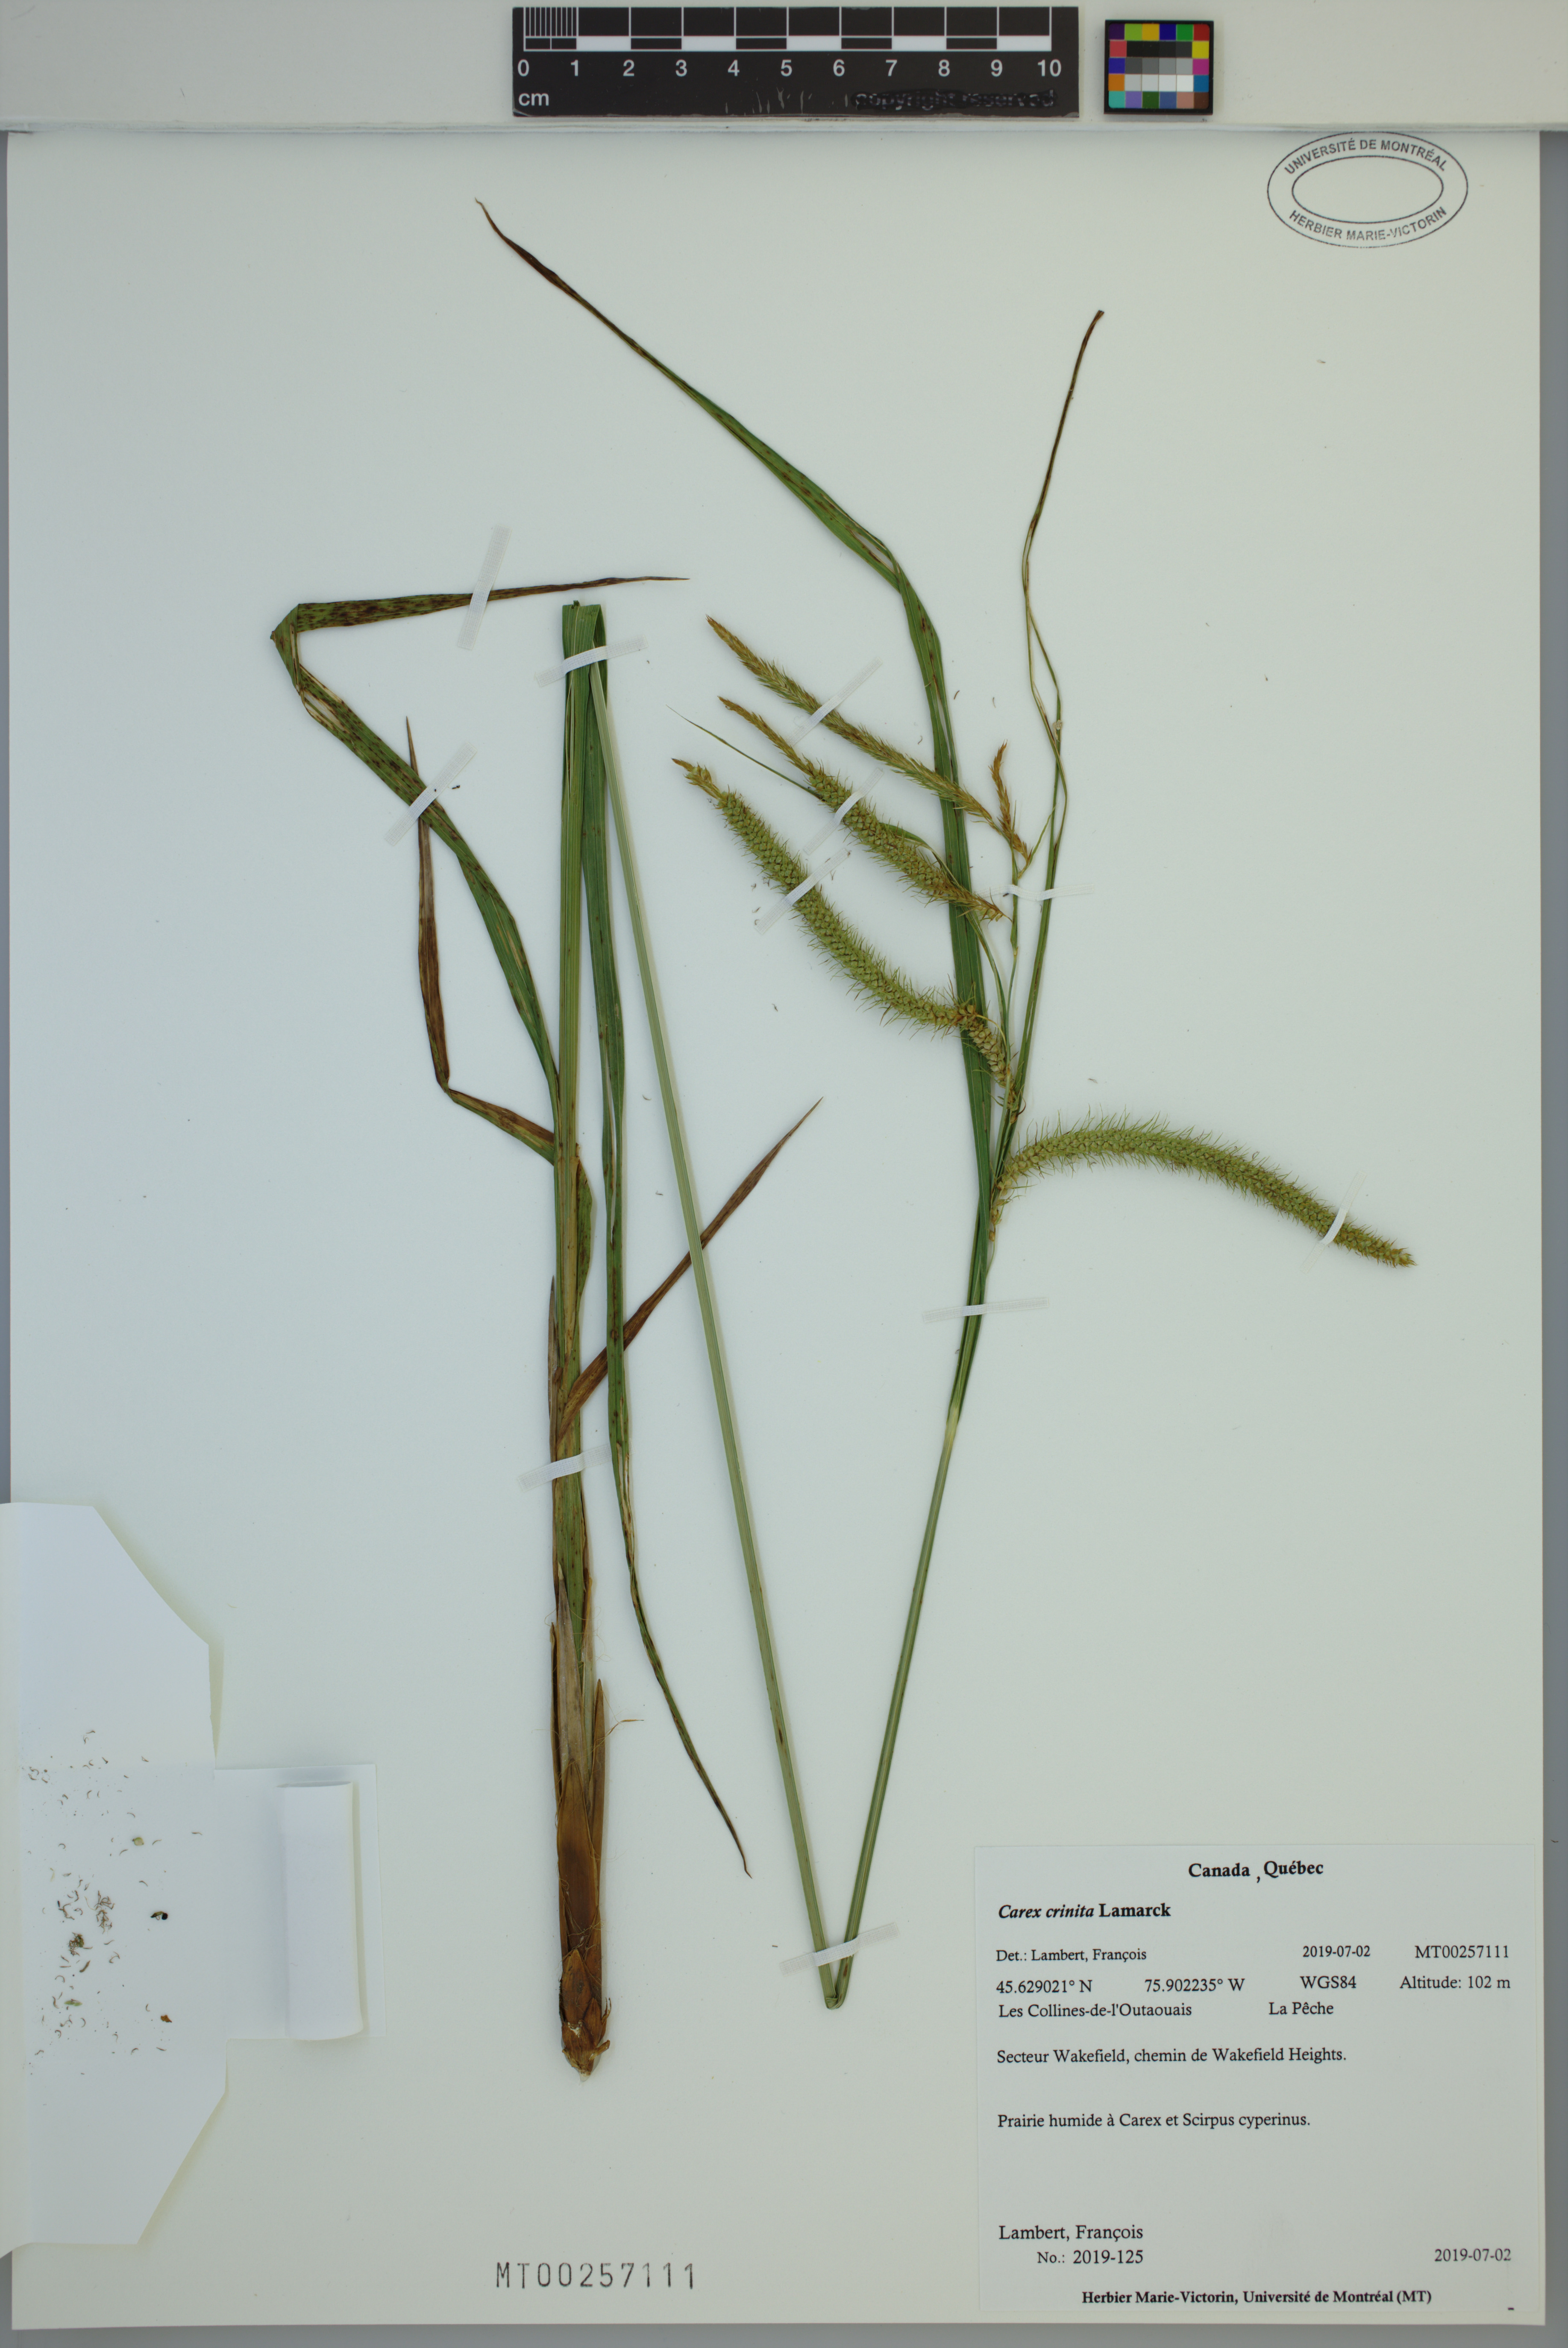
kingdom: Plantae
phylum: Tracheophyta
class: Liliopsida
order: Poales
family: Cyperaceae
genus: Carex
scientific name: Carex crinita
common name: Fringed sedge
